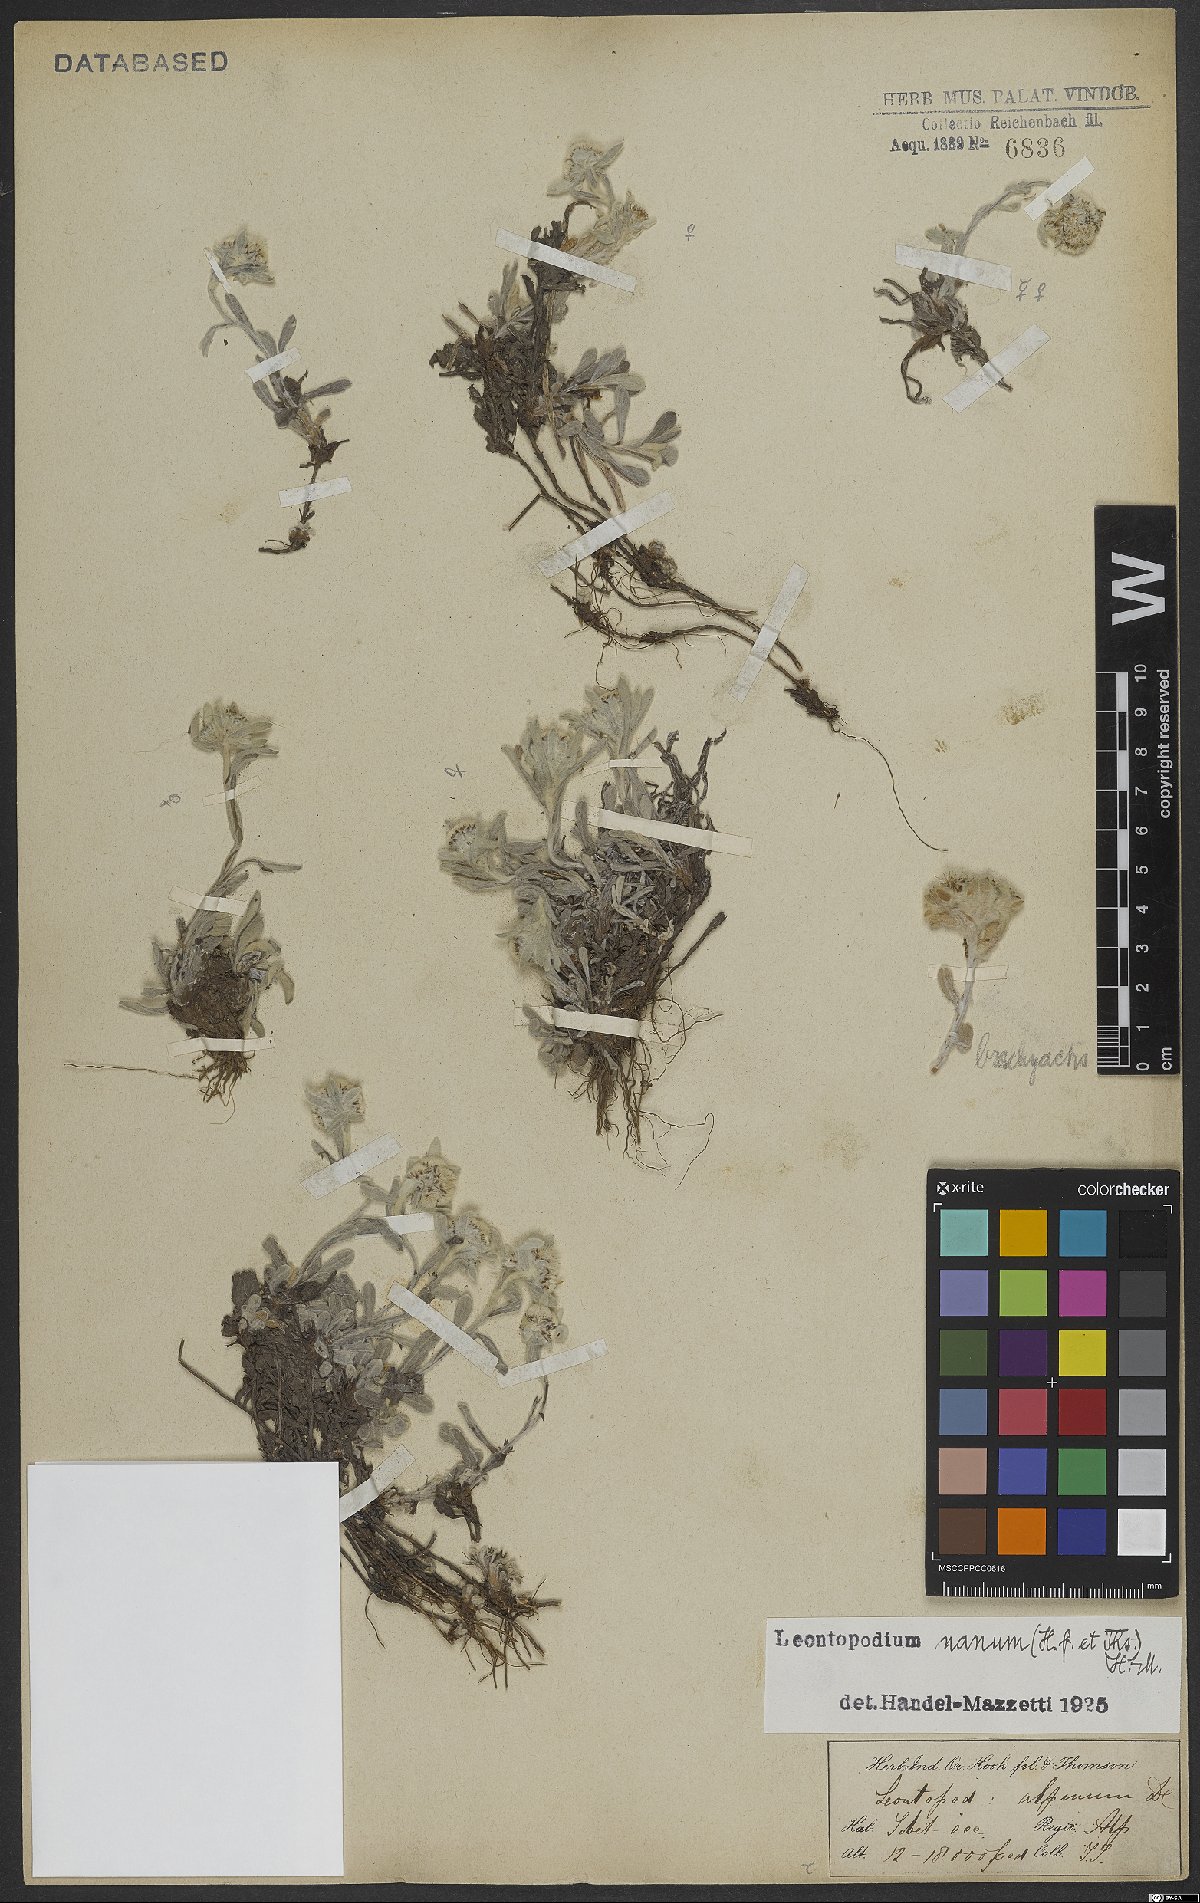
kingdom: Plantae
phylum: Tracheophyta
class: Magnoliopsida
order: Asterales
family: Asteraceae
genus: Leontopodium
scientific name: Leontopodium nanum
